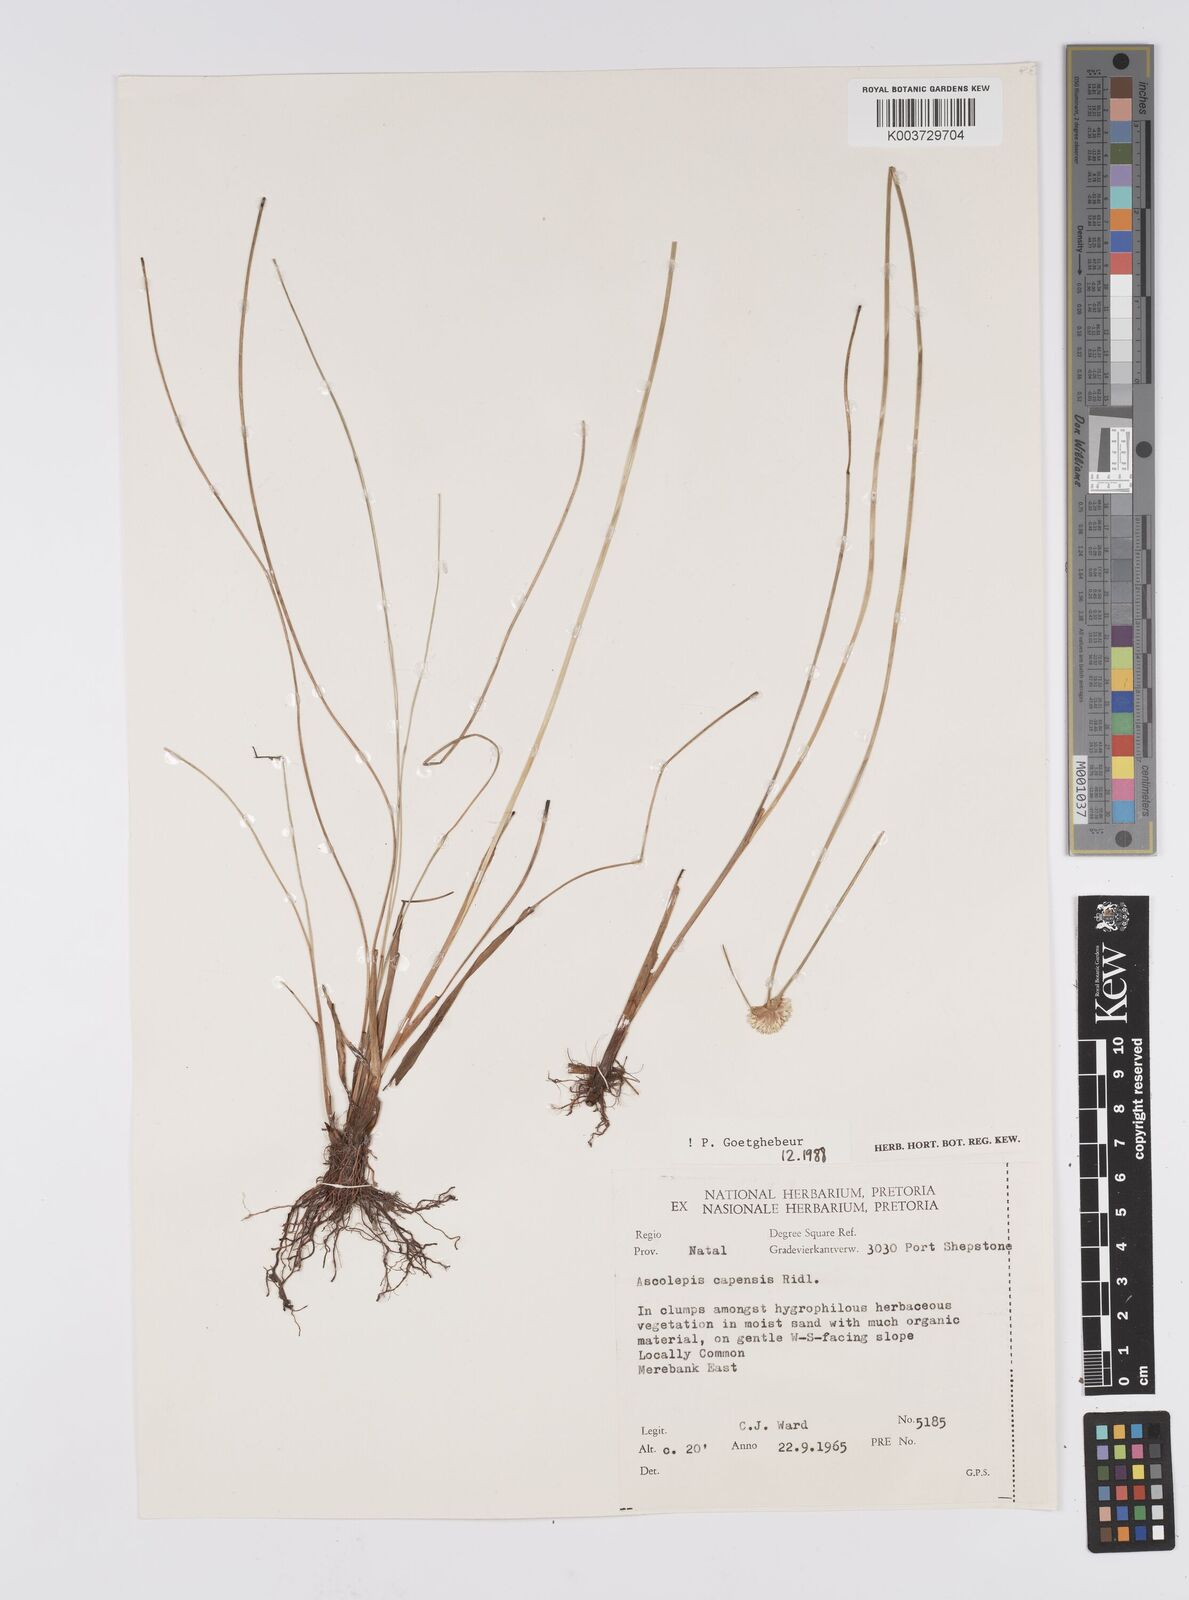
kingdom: Plantae
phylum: Tracheophyta
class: Liliopsida
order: Poales
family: Cyperaceae
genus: Cyperus
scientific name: Cyperus capensis
